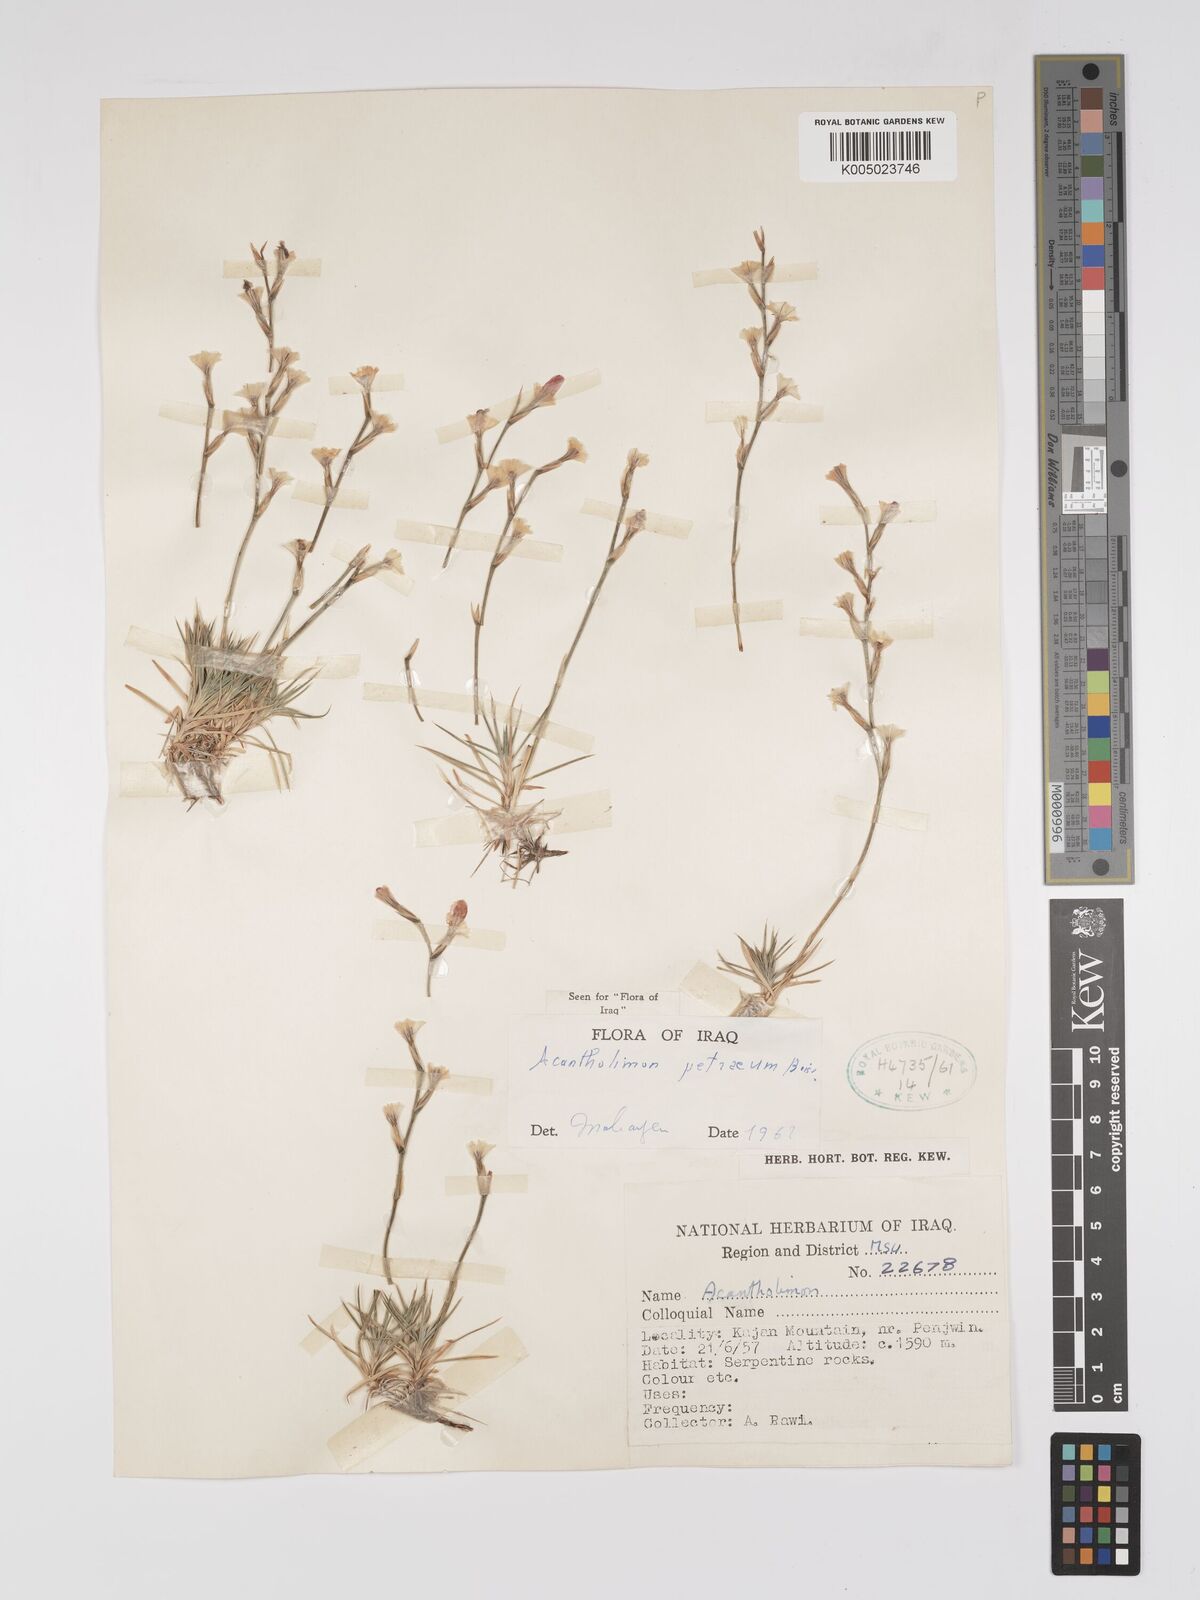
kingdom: Plantae
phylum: Tracheophyta
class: Magnoliopsida
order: Caryophyllales
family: Plumbaginaceae
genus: Acantholimon
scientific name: Acantholimon petraeum
